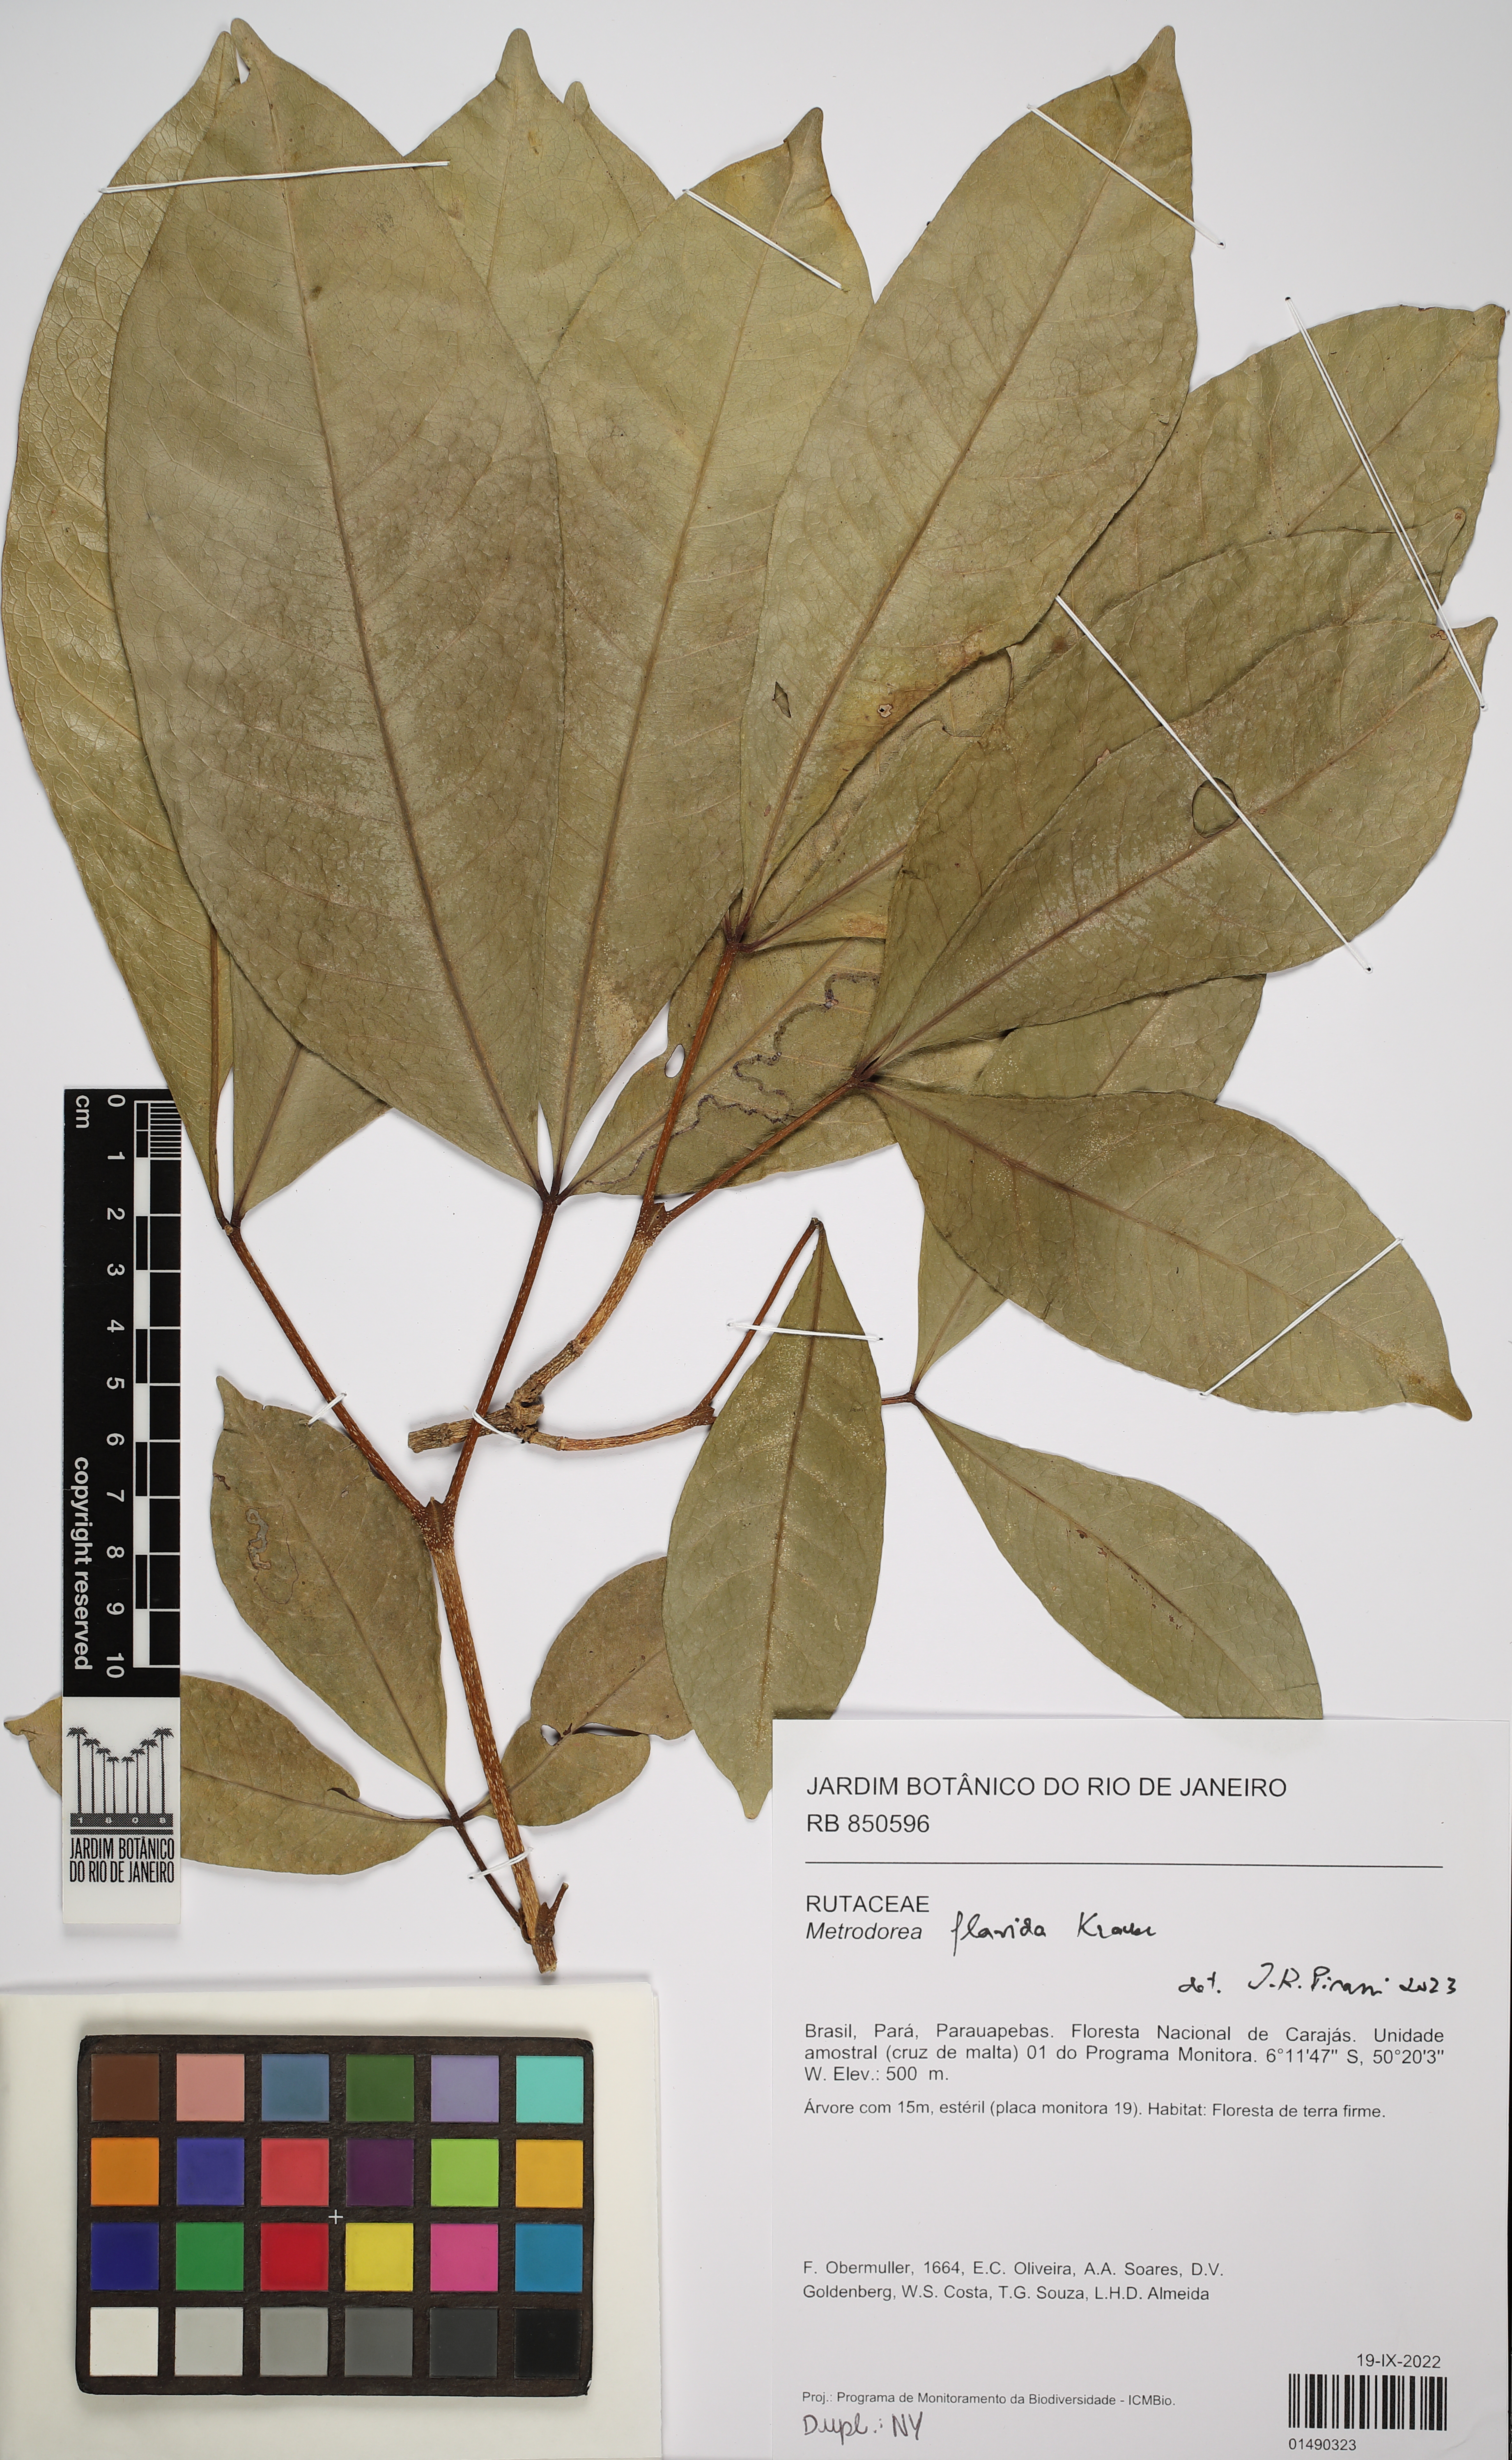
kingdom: Plantae
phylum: Tracheophyta
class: Magnoliopsida
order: Sapindales
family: Rutaceae
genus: Metrodorea
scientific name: Metrodorea flavida
